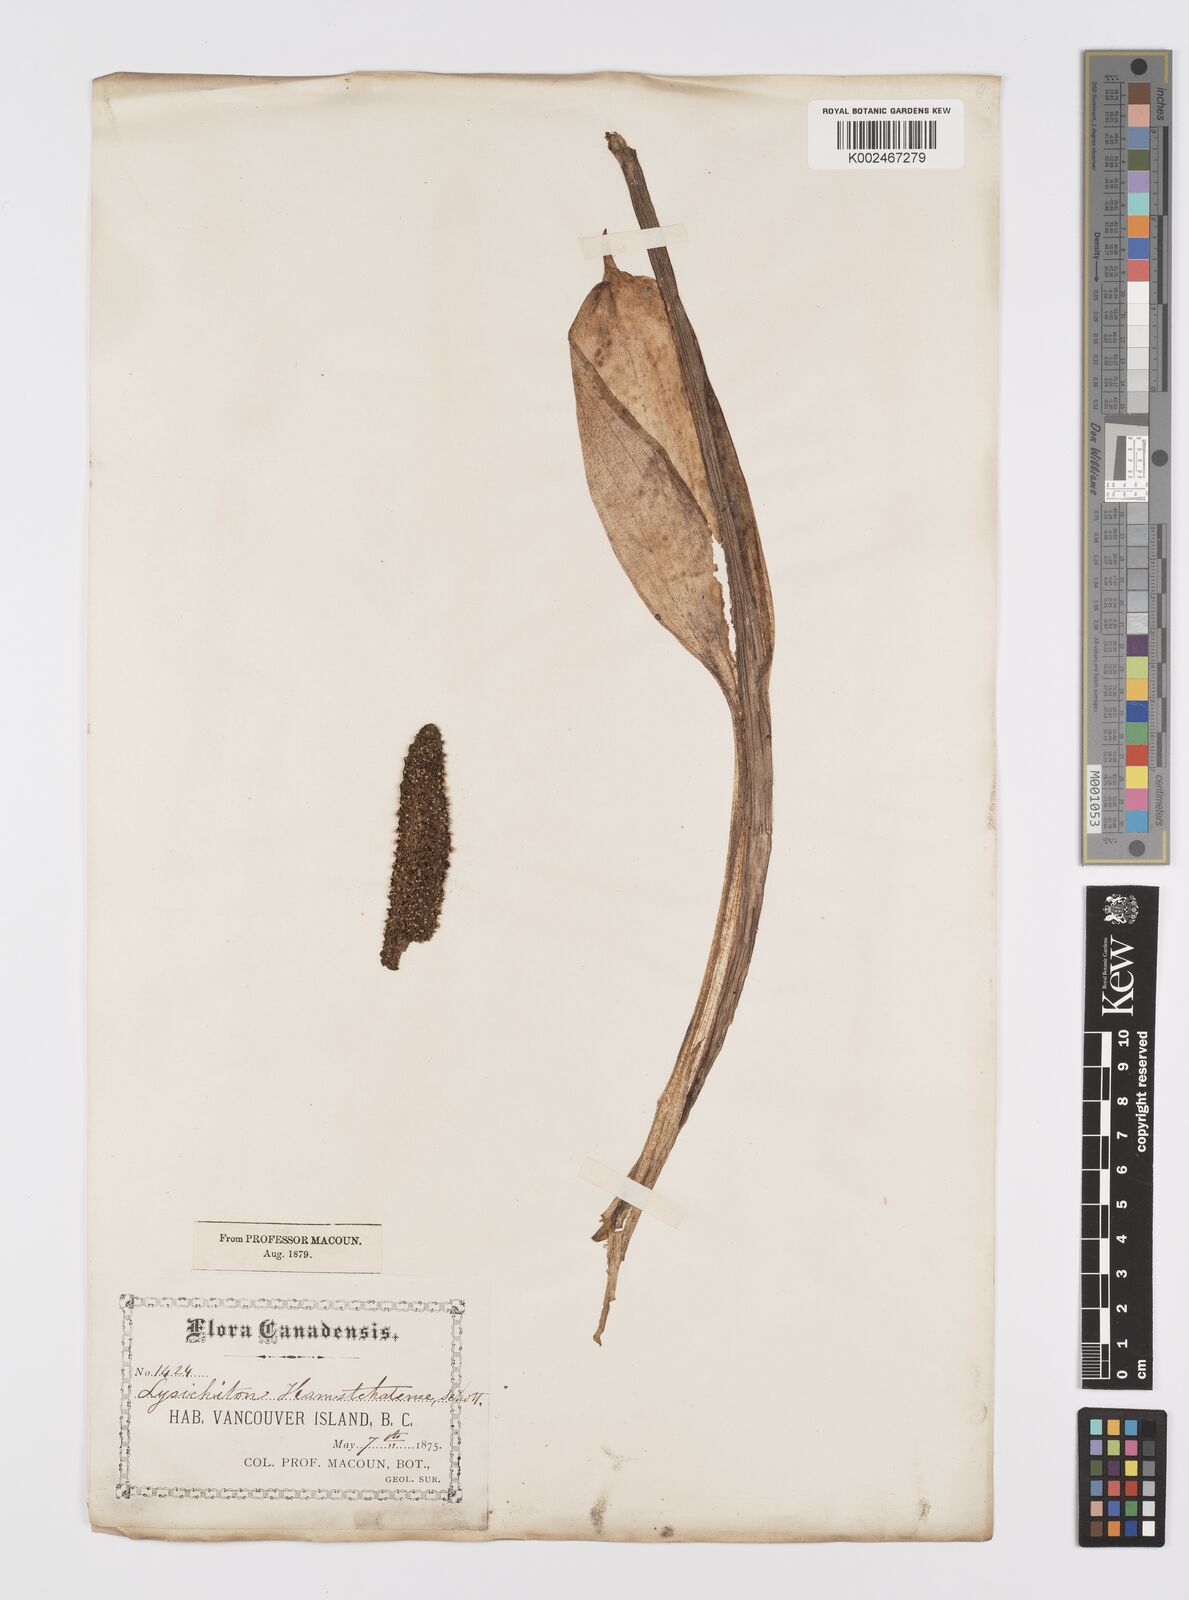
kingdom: Plantae
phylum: Tracheophyta
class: Liliopsida
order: Alismatales
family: Araceae
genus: Lysichiton
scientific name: Lysichiton americanus
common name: American skunk cabbage
